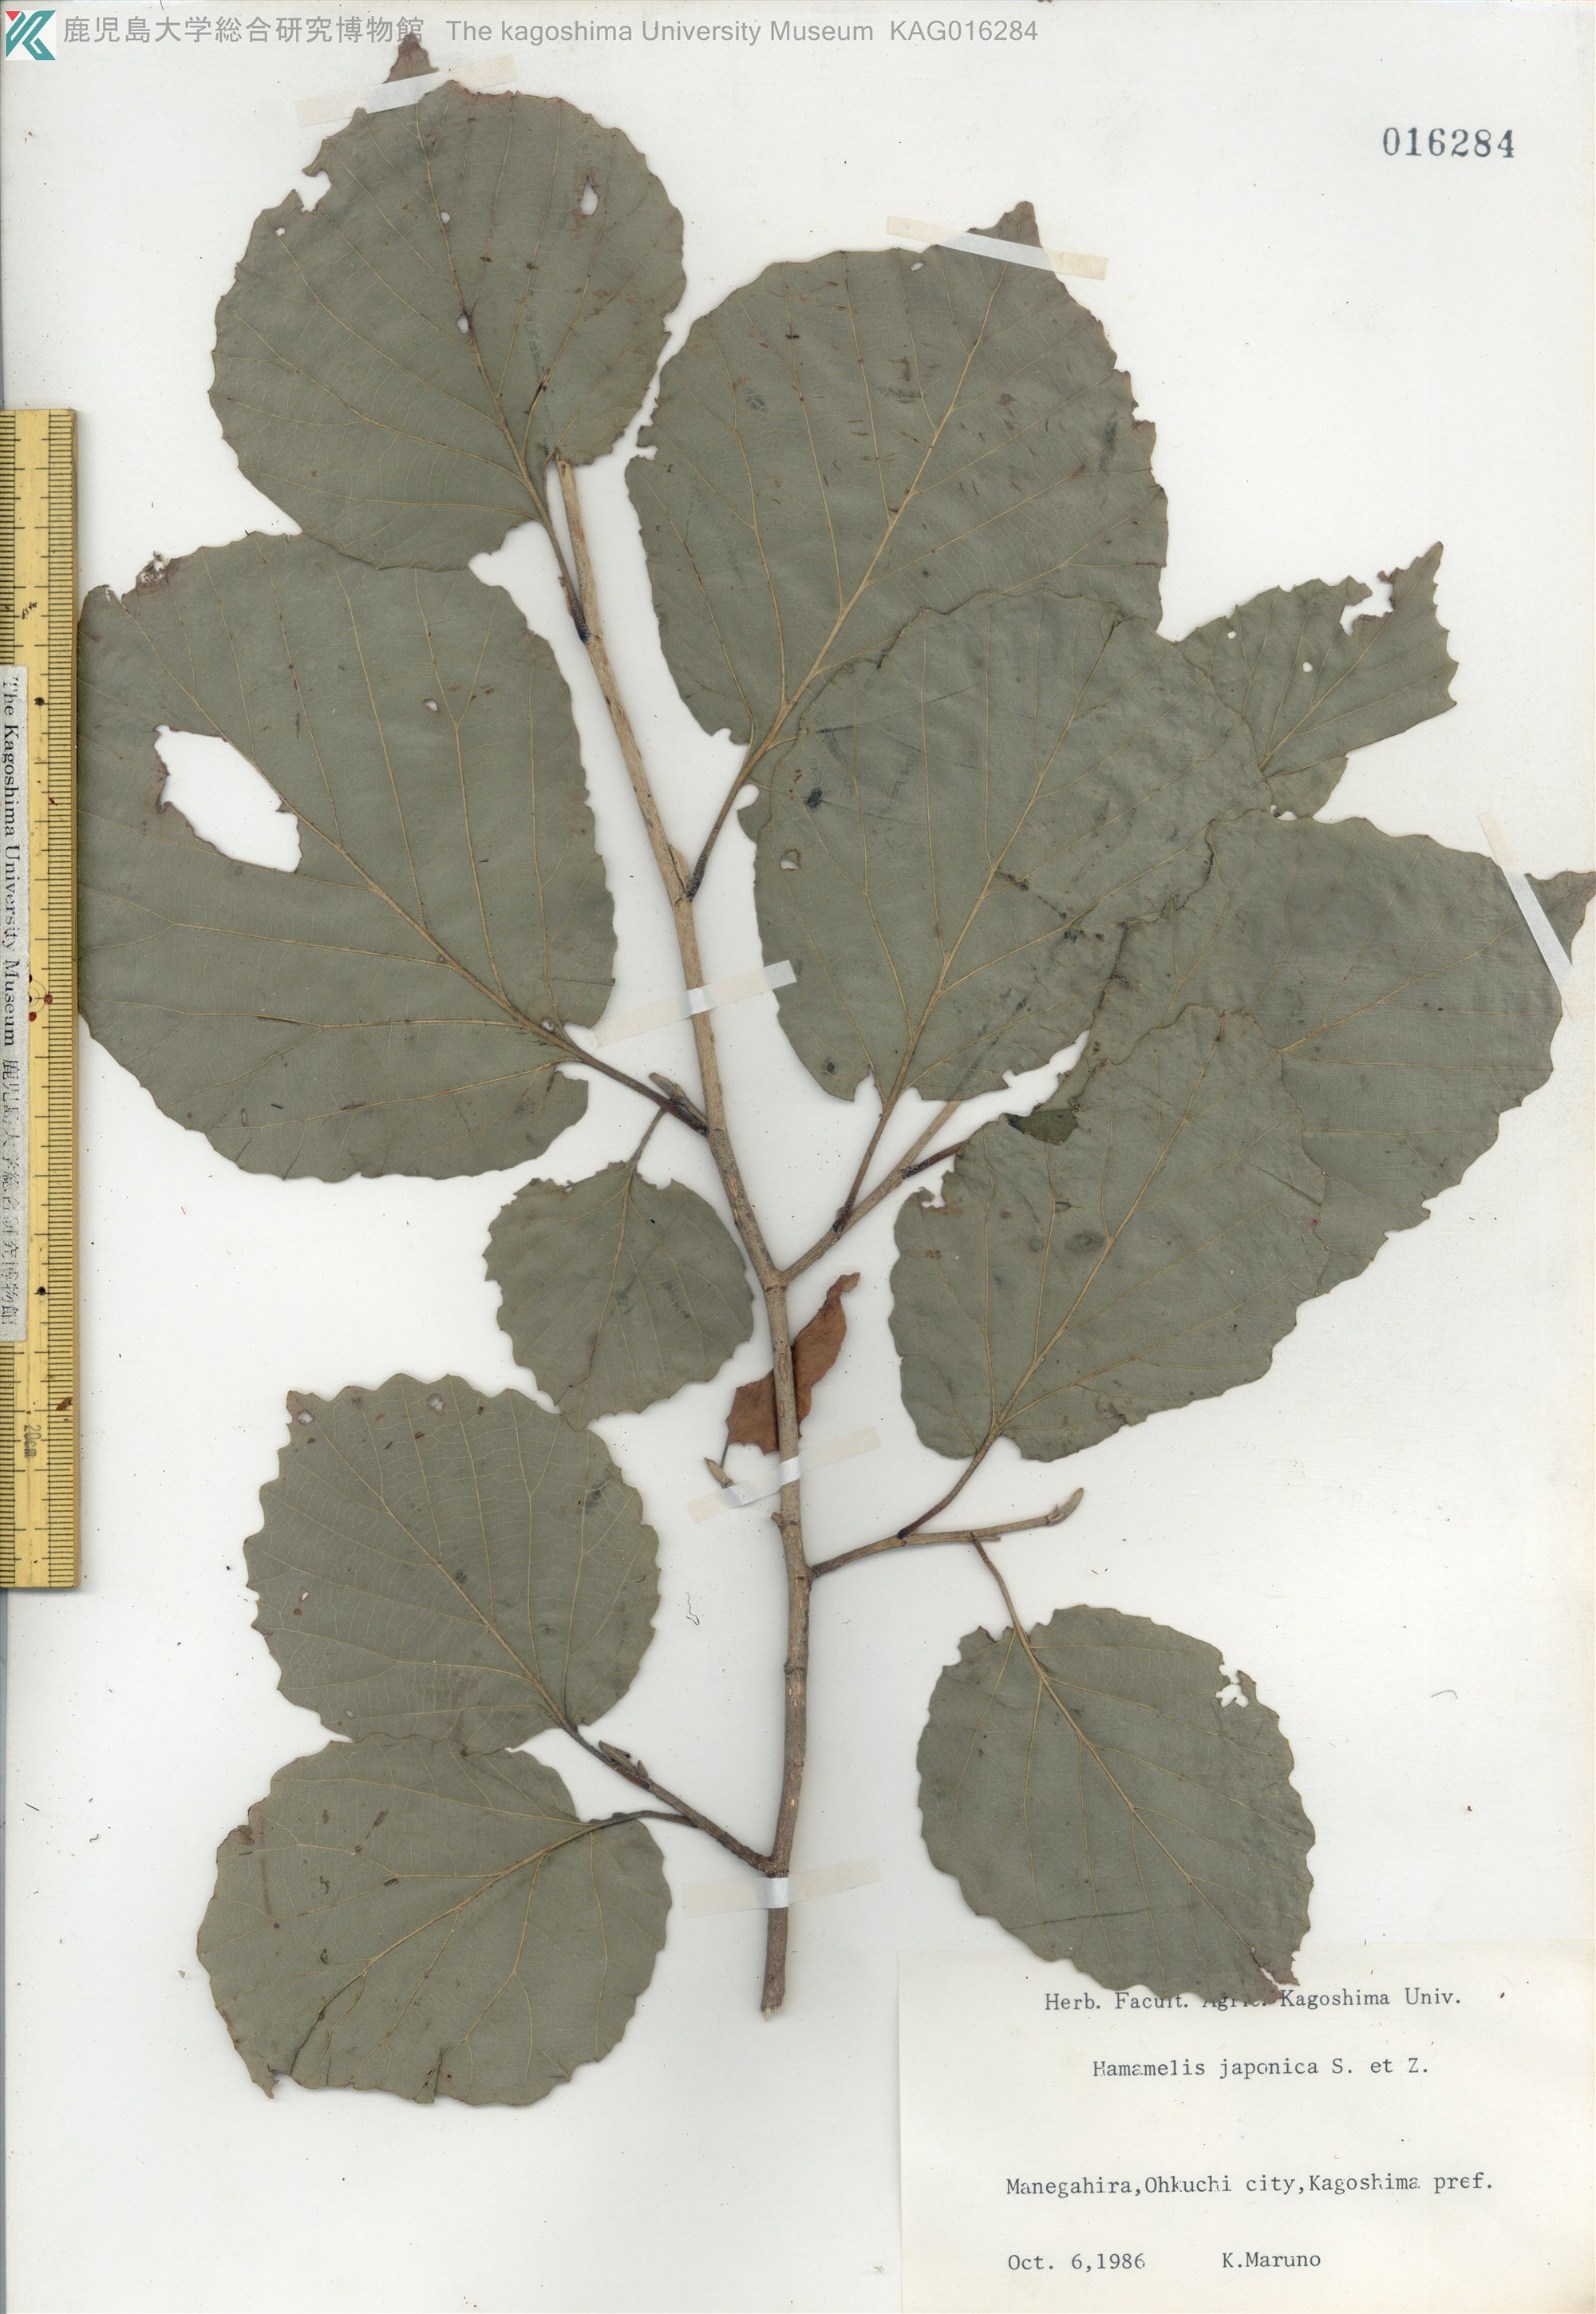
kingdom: Plantae
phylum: Tracheophyta
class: Magnoliopsida
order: Saxifragales
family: Hamamelidaceae
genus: Hamamelis
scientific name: Hamamelis japonica
